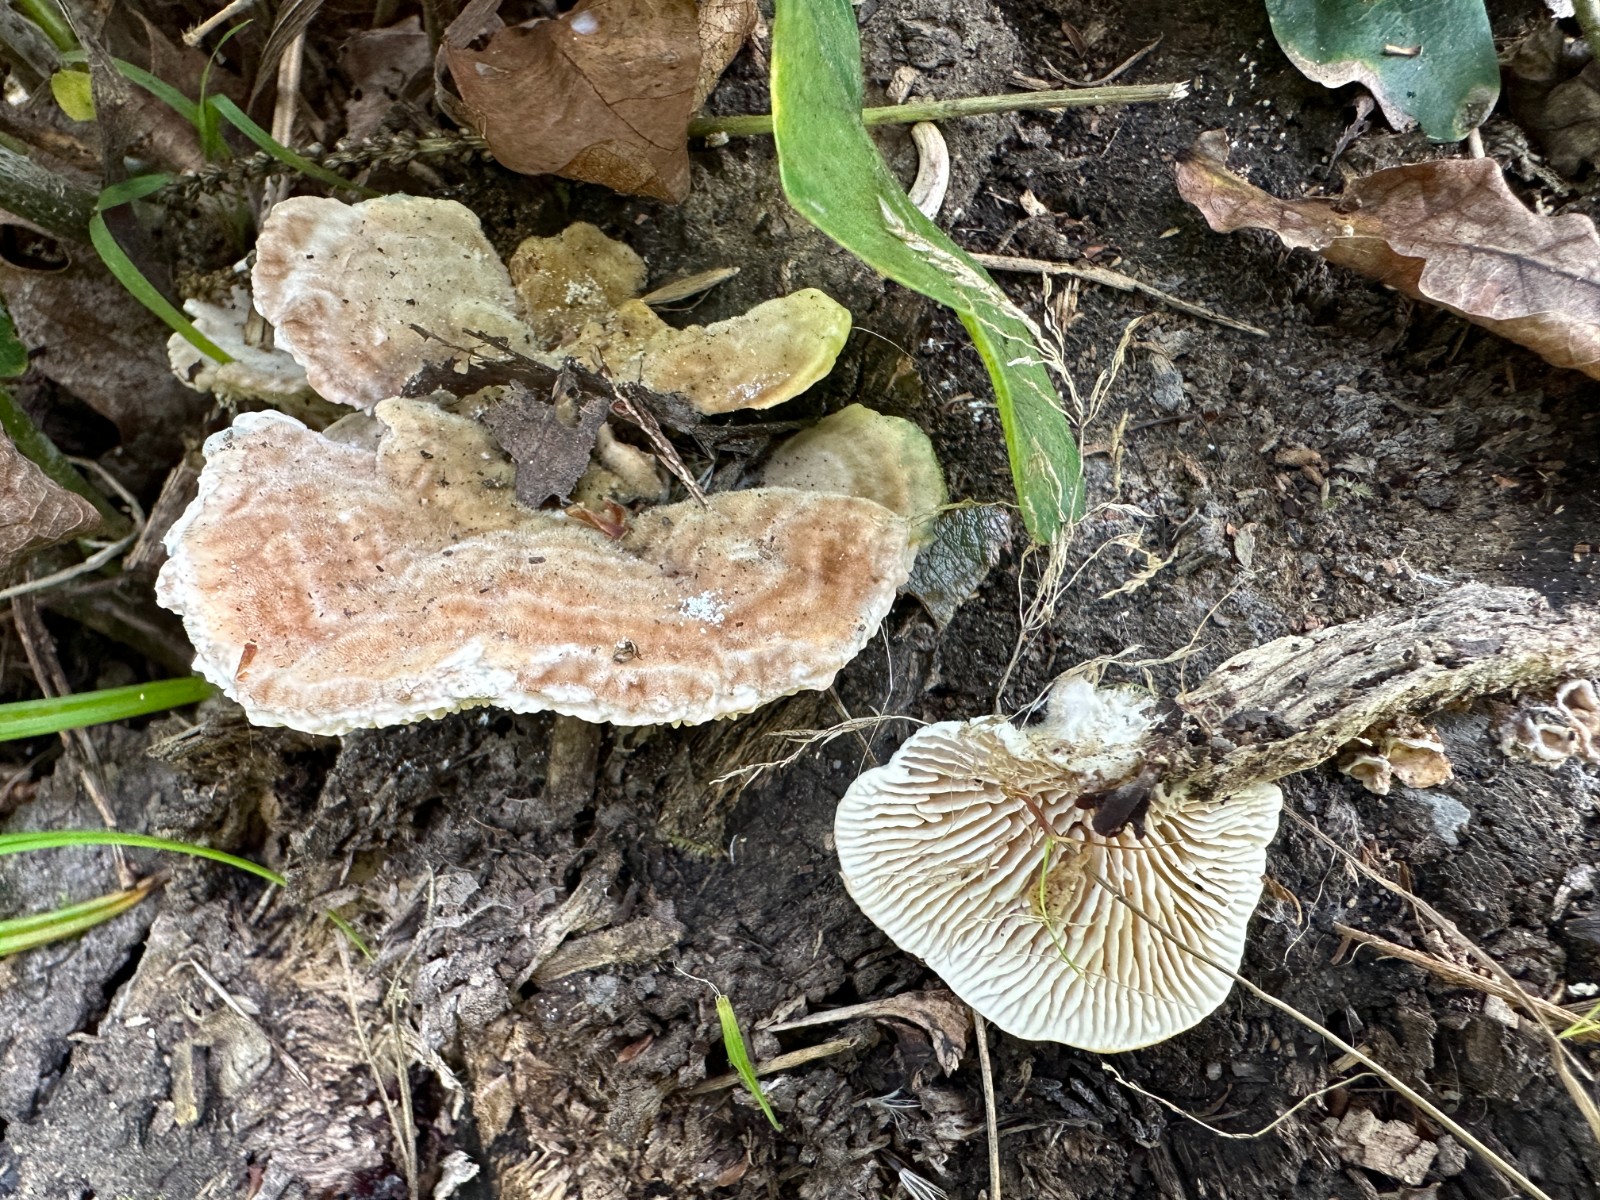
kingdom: Fungi
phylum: Basidiomycota
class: Agaricomycetes
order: Polyporales
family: Polyporaceae
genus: Lenzites
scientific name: Lenzites betulinus
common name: birke-læderporesvamp
